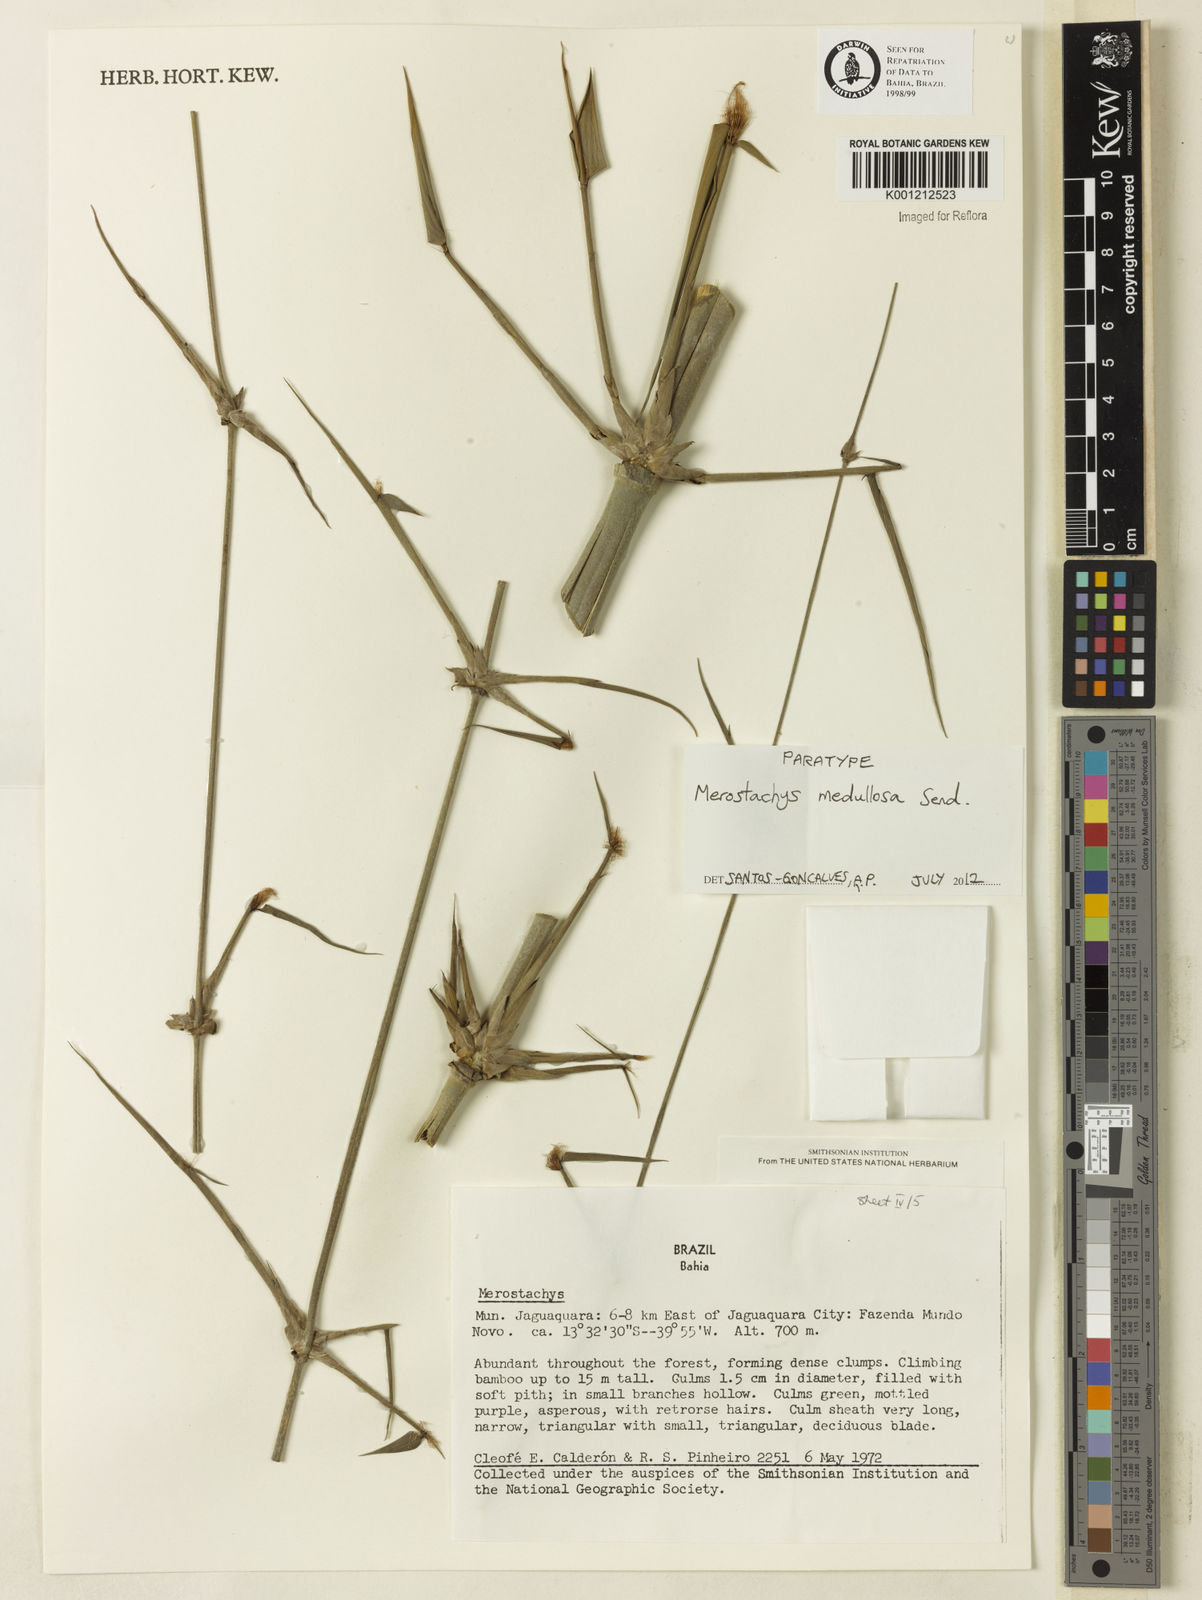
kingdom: Plantae
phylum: Tracheophyta
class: Liliopsida
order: Poales
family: Poaceae
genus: Merostachys
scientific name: Merostachys medullosa
